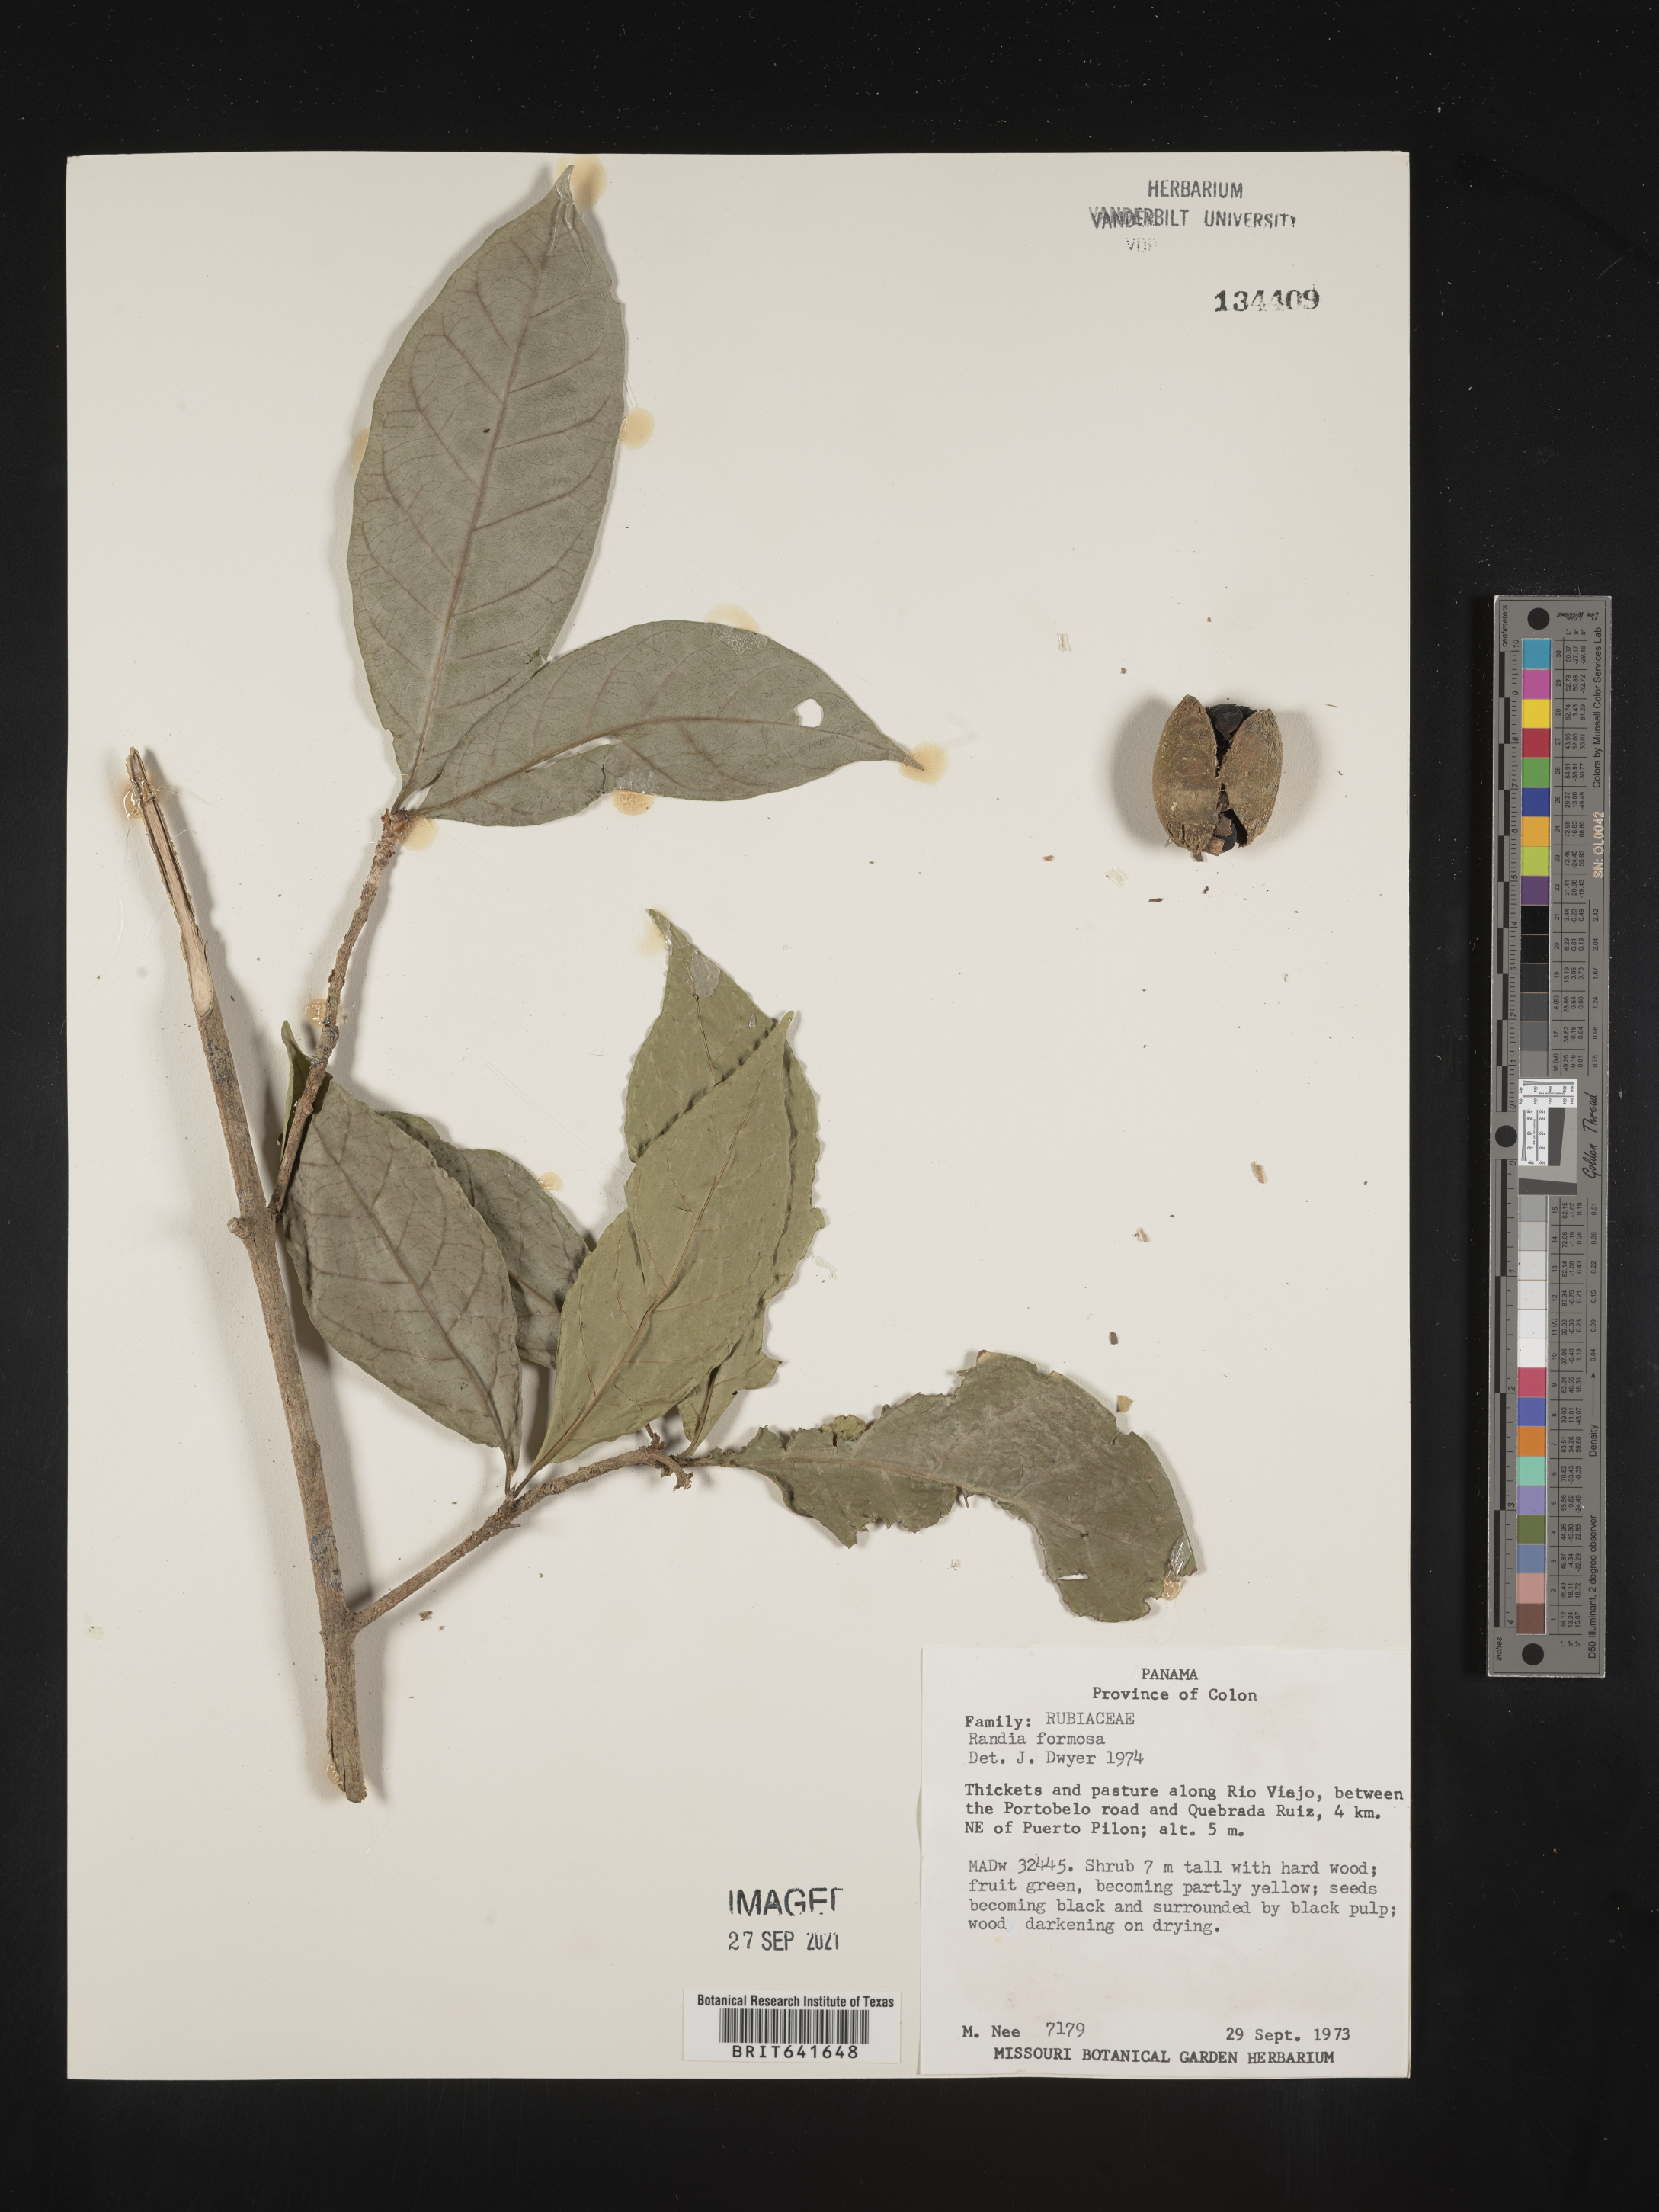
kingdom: Plantae
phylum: Tracheophyta
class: Magnoliopsida
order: Gentianales
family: Rubiaceae
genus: Randia
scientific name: Randia
